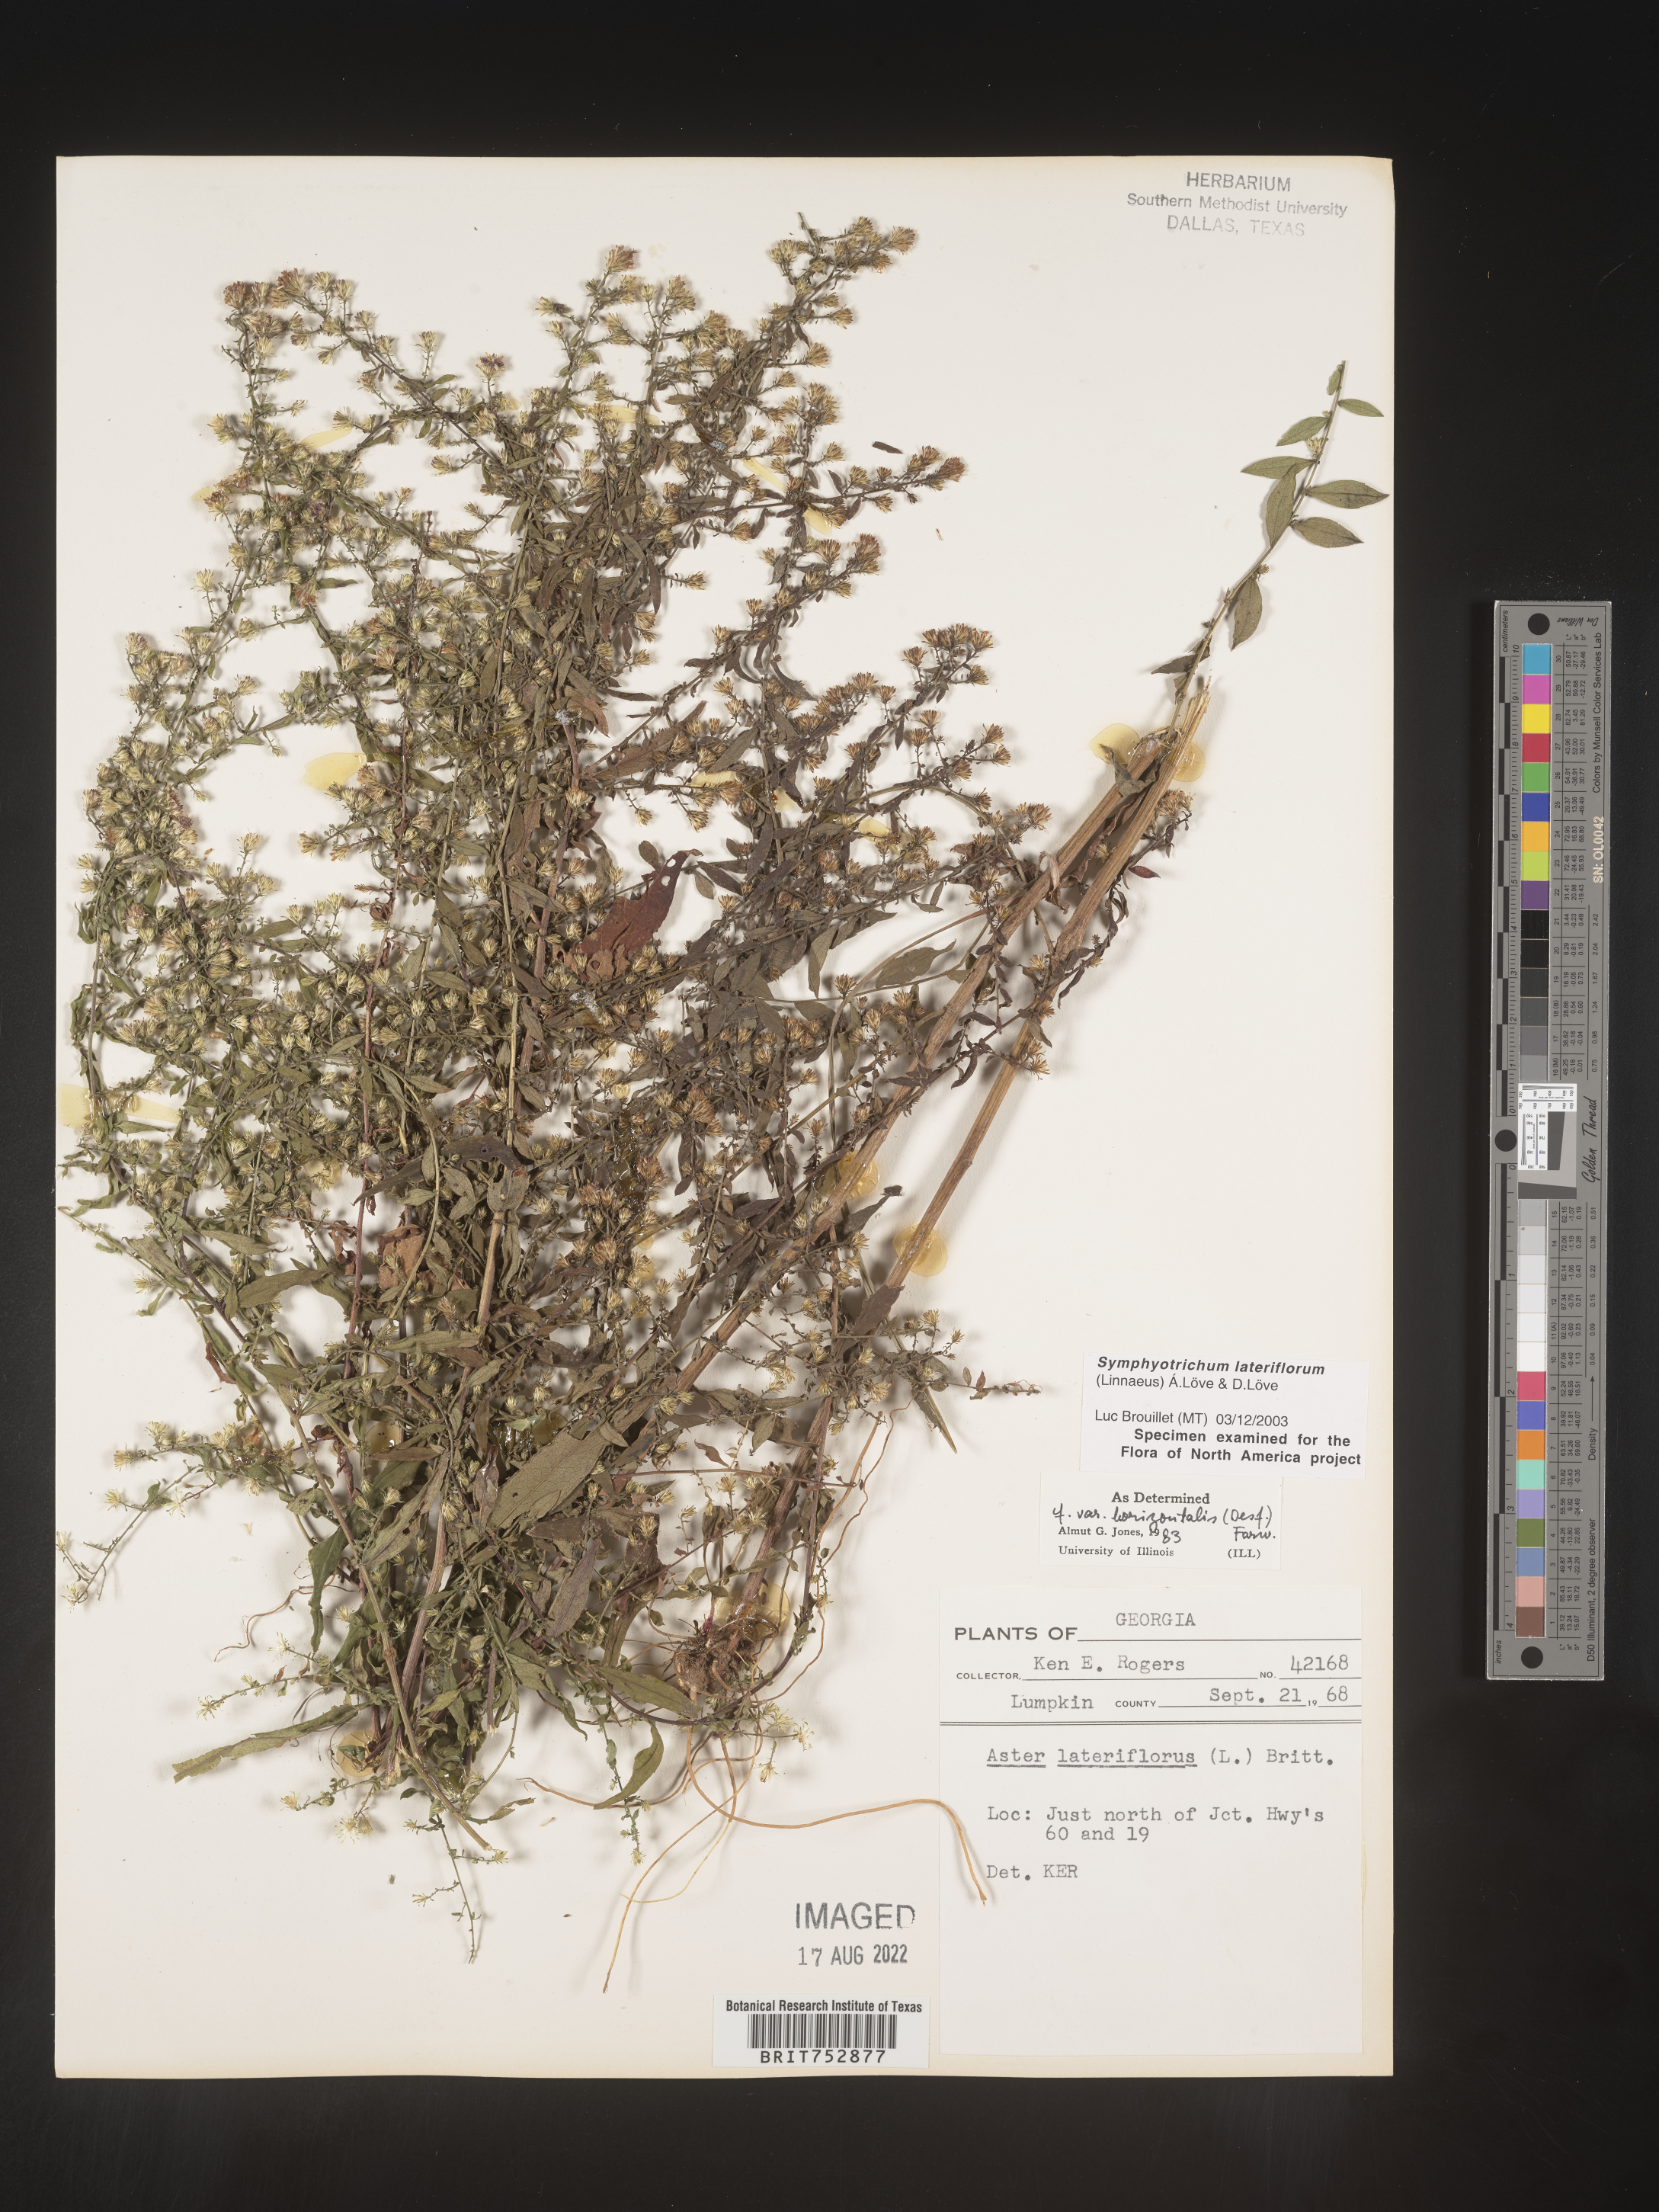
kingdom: Plantae
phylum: Tracheophyta
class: Magnoliopsida
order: Asterales
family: Asteraceae
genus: Symphyotrichum
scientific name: Symphyotrichum lateriflorum
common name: Calico aster
